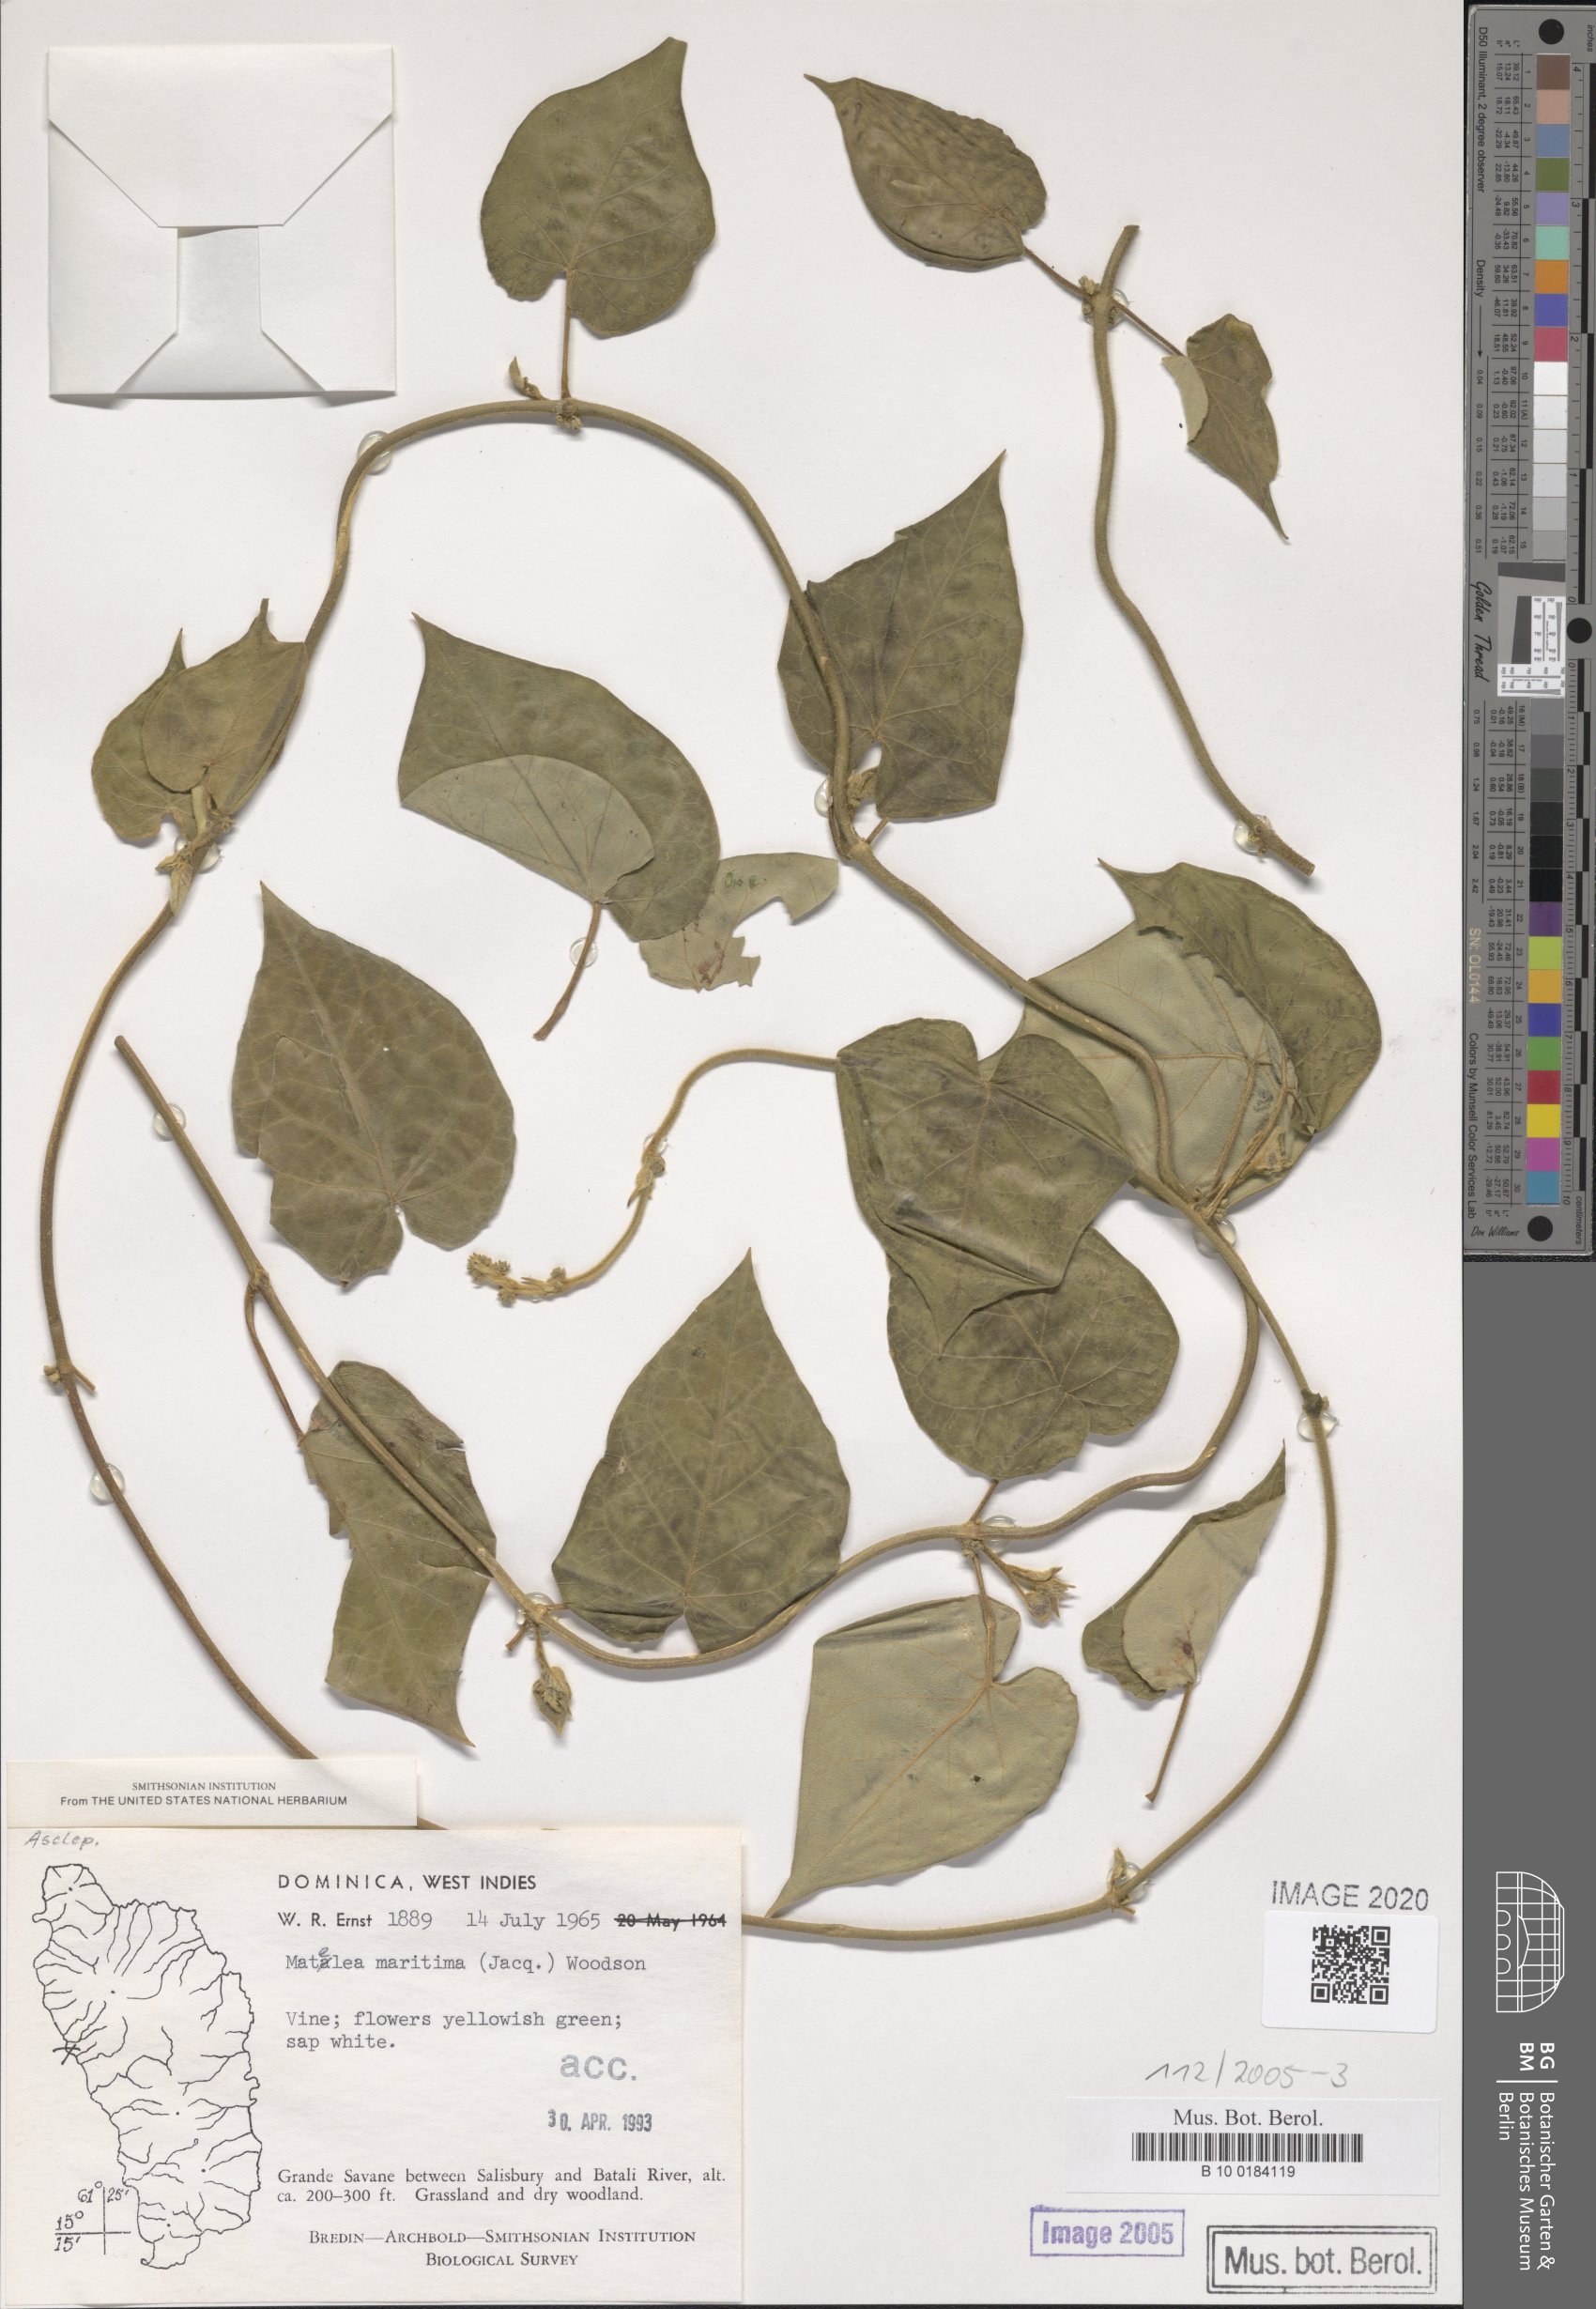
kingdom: Plantae
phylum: Tracheophyta
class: Magnoliopsida
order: Gentianales
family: Apocynaceae
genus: Ibatia
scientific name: Ibatia maritima
